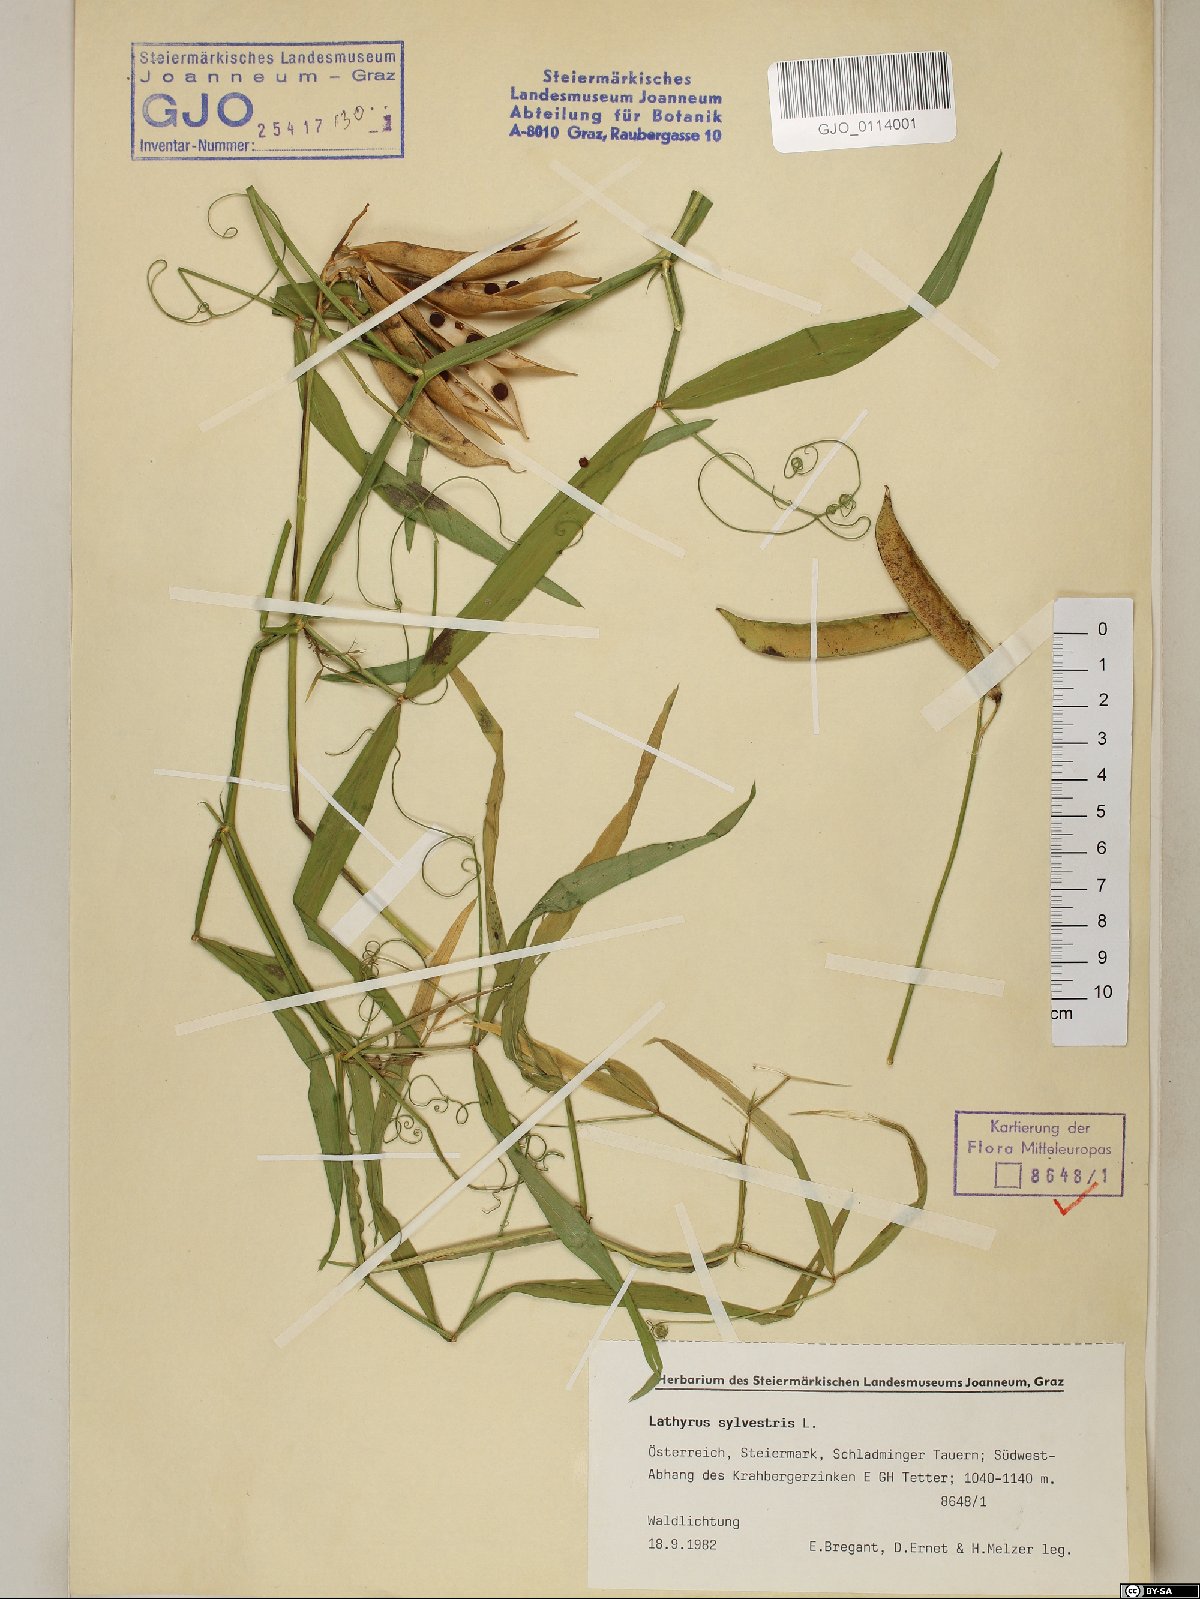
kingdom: Plantae
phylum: Tracheophyta
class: Magnoliopsida
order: Fabales
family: Fabaceae
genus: Lathyrus
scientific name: Lathyrus sylvestris
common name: Flat pea
